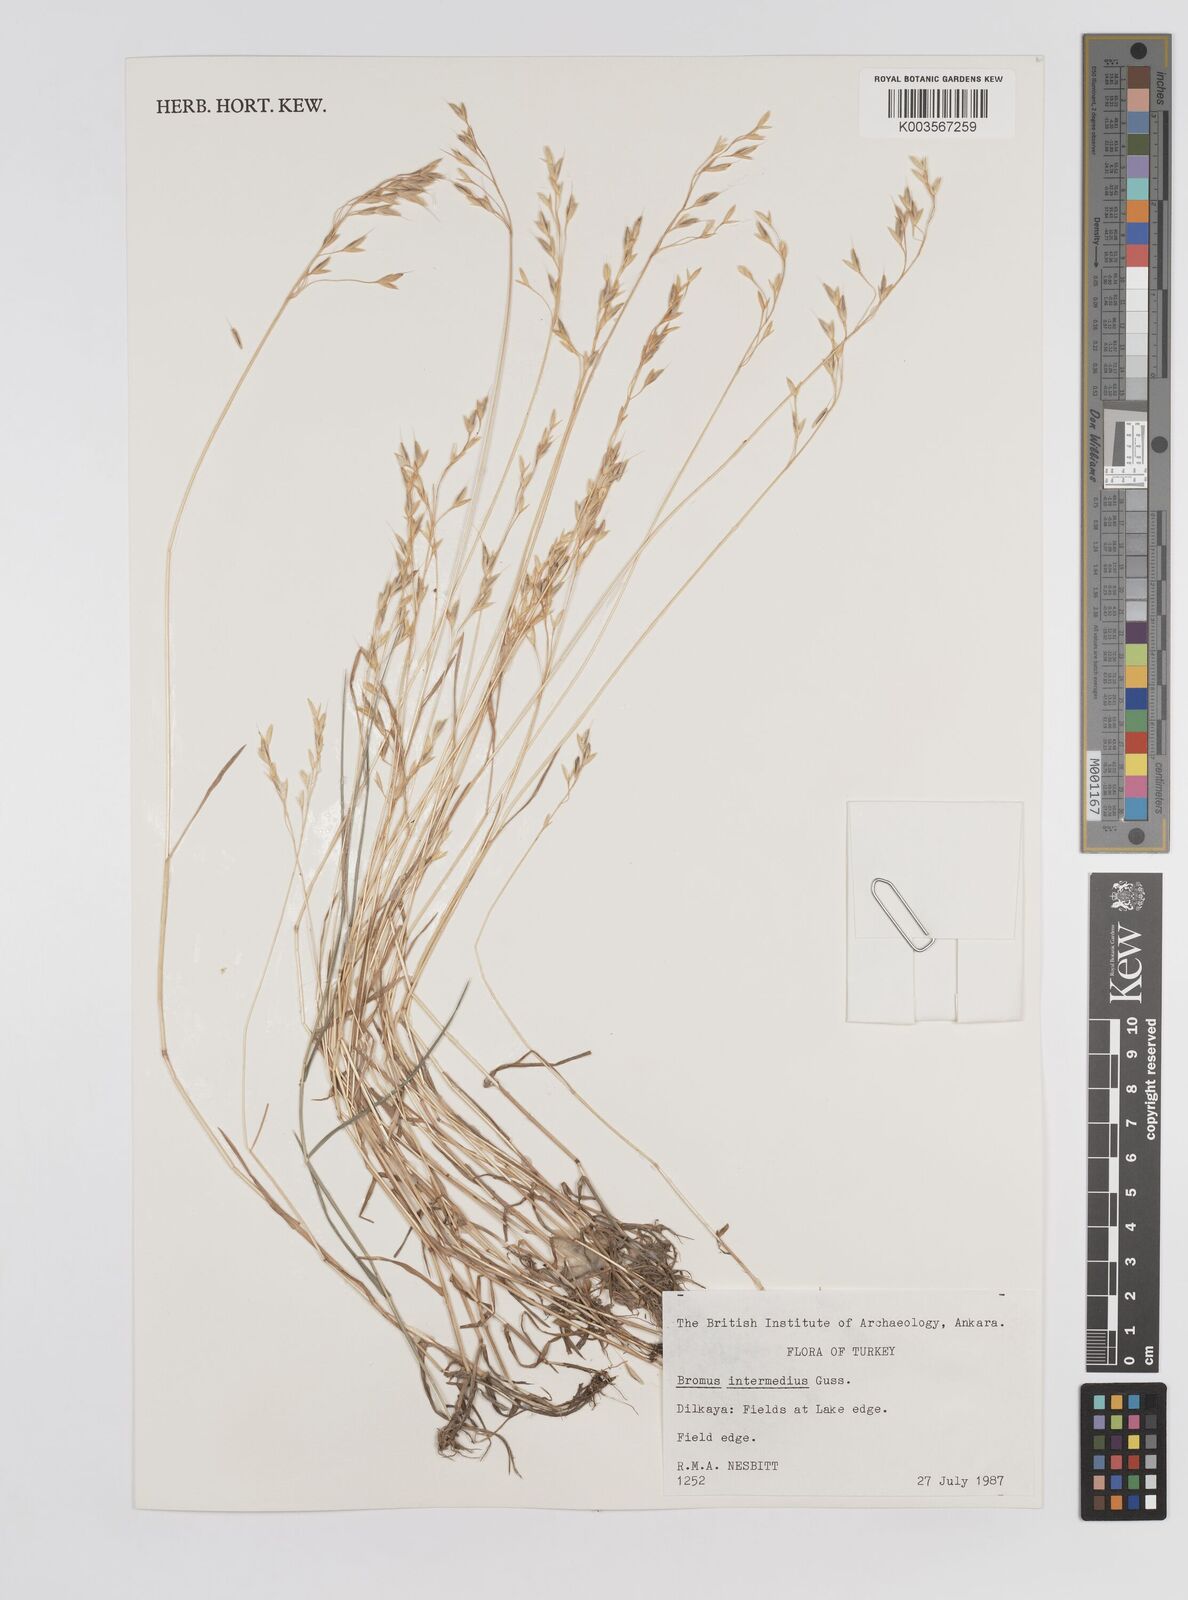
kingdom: Plantae
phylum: Tracheophyta
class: Liliopsida
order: Poales
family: Poaceae
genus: Bromus
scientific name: Bromus intermedius
